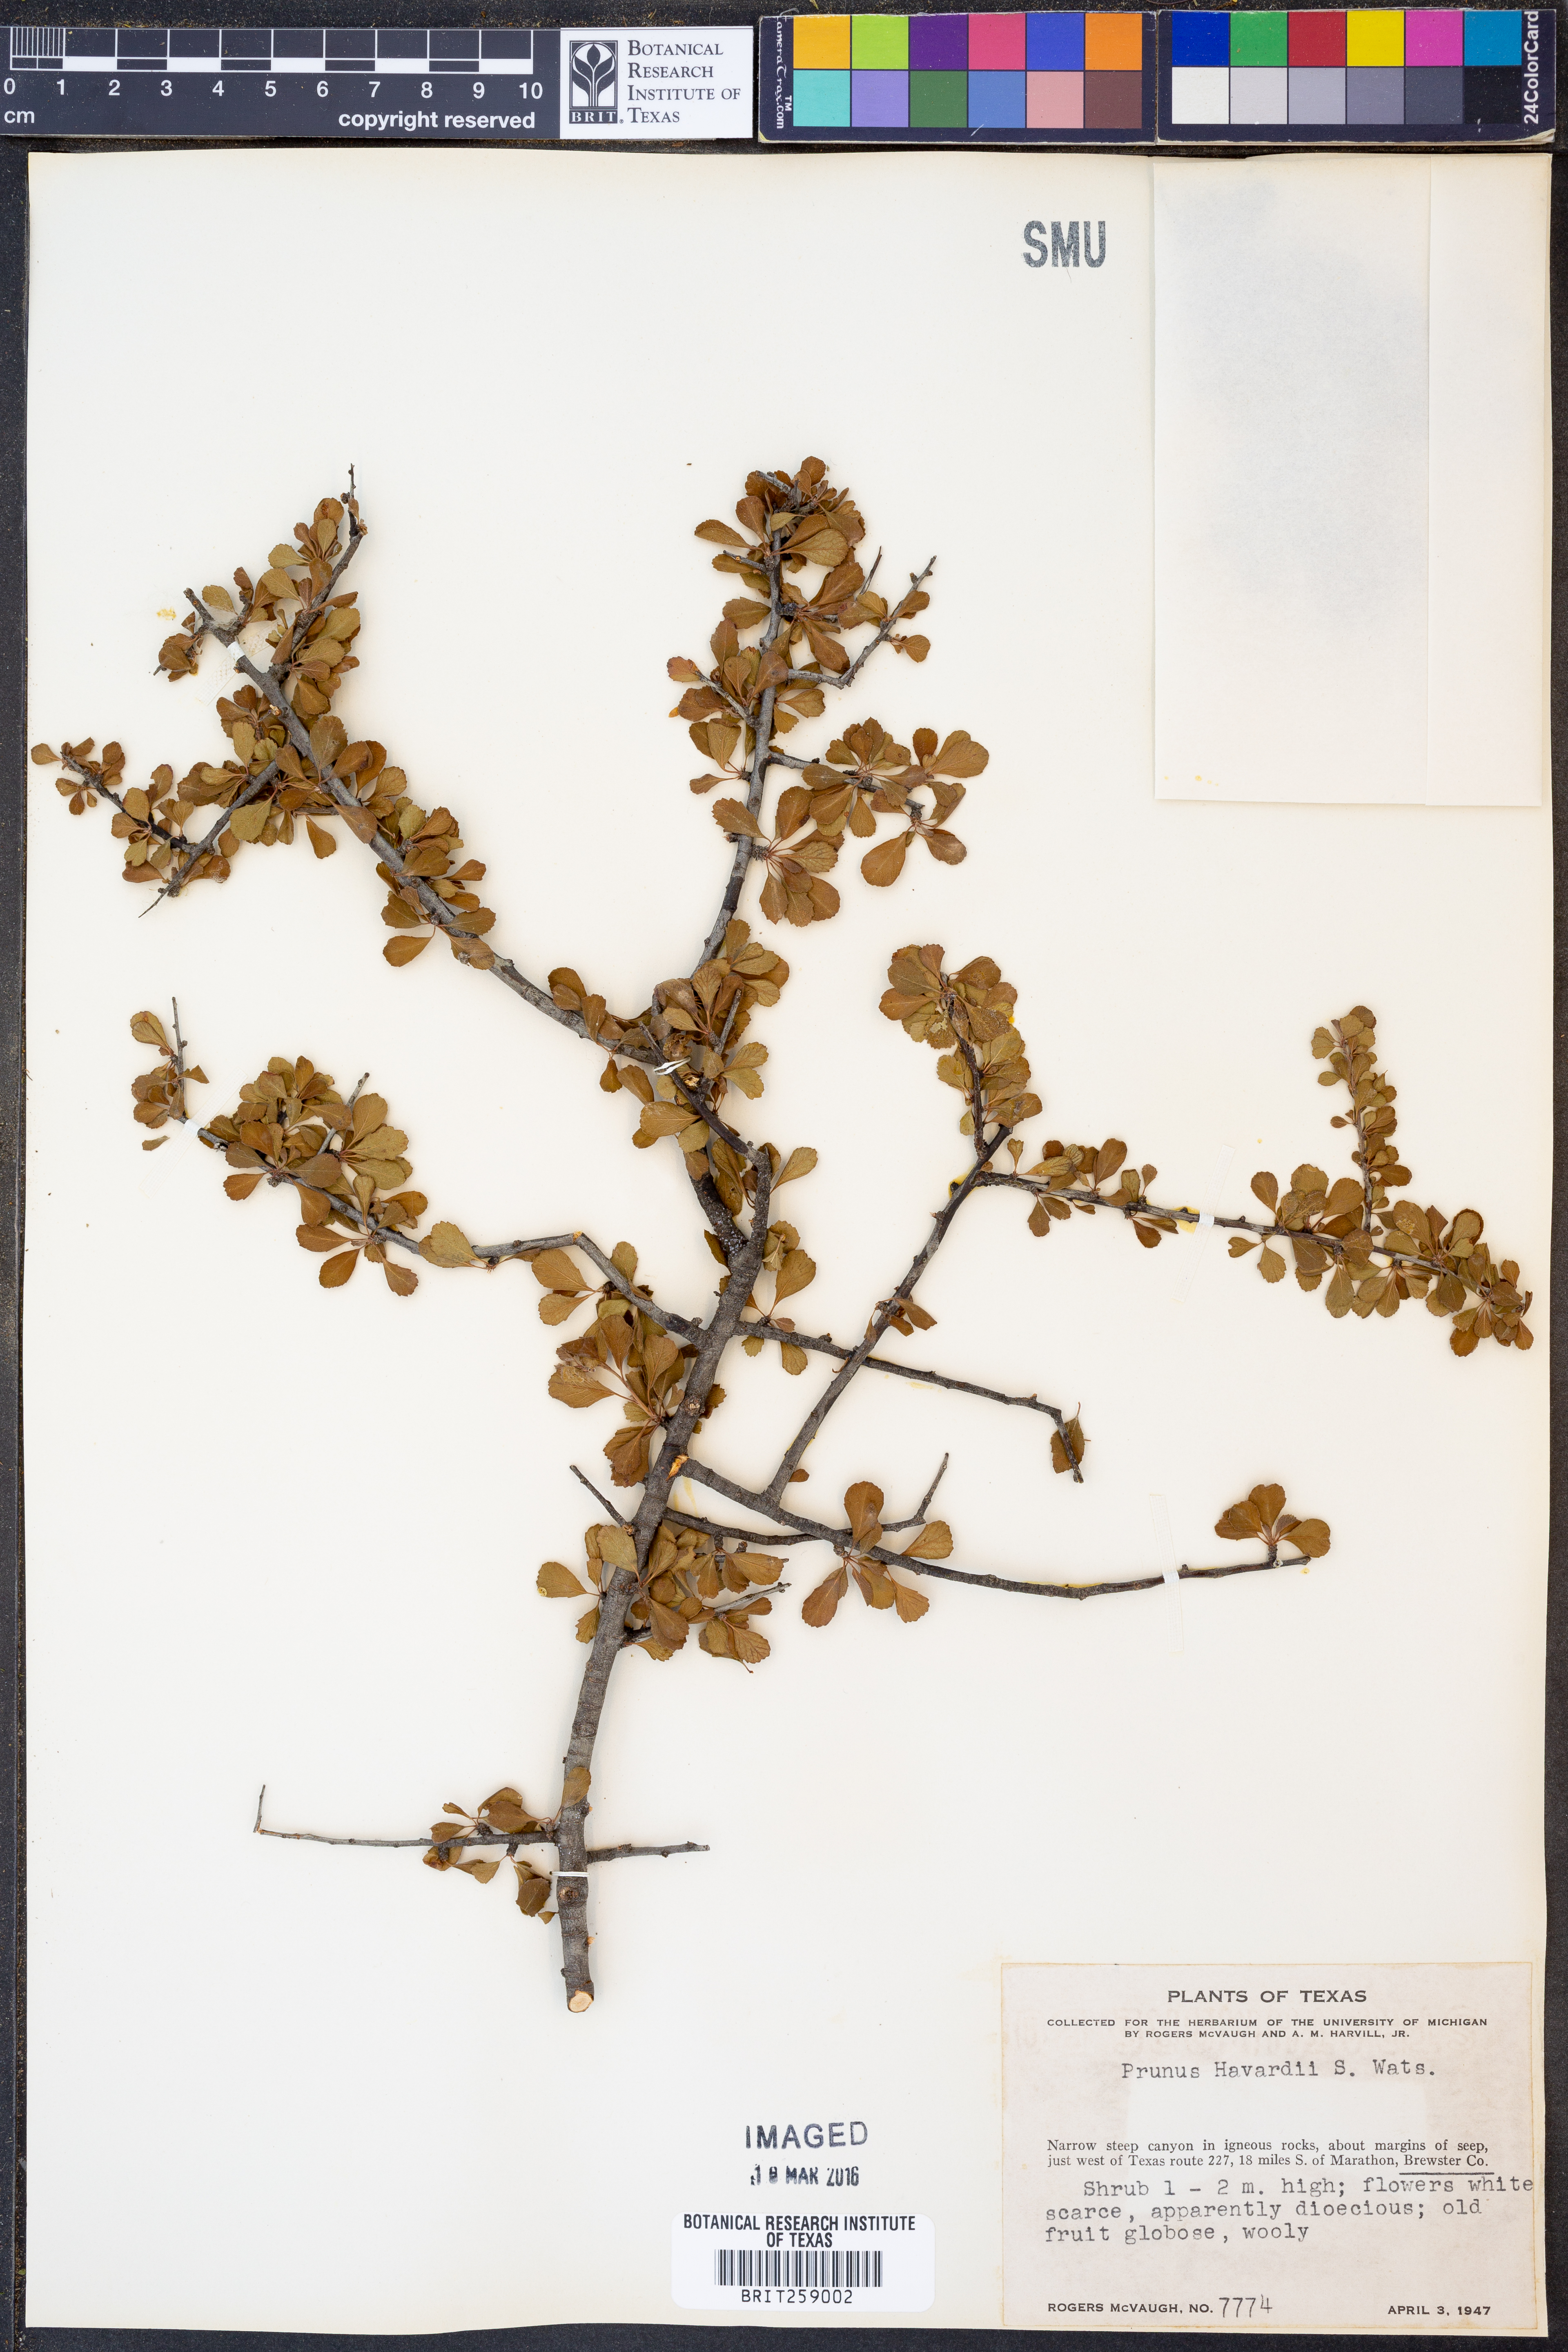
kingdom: Plantae
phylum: Tracheophyta
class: Magnoliopsida
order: Rosales
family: Rosaceae
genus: Prunus
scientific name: Prunus havardii
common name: Havard plum
